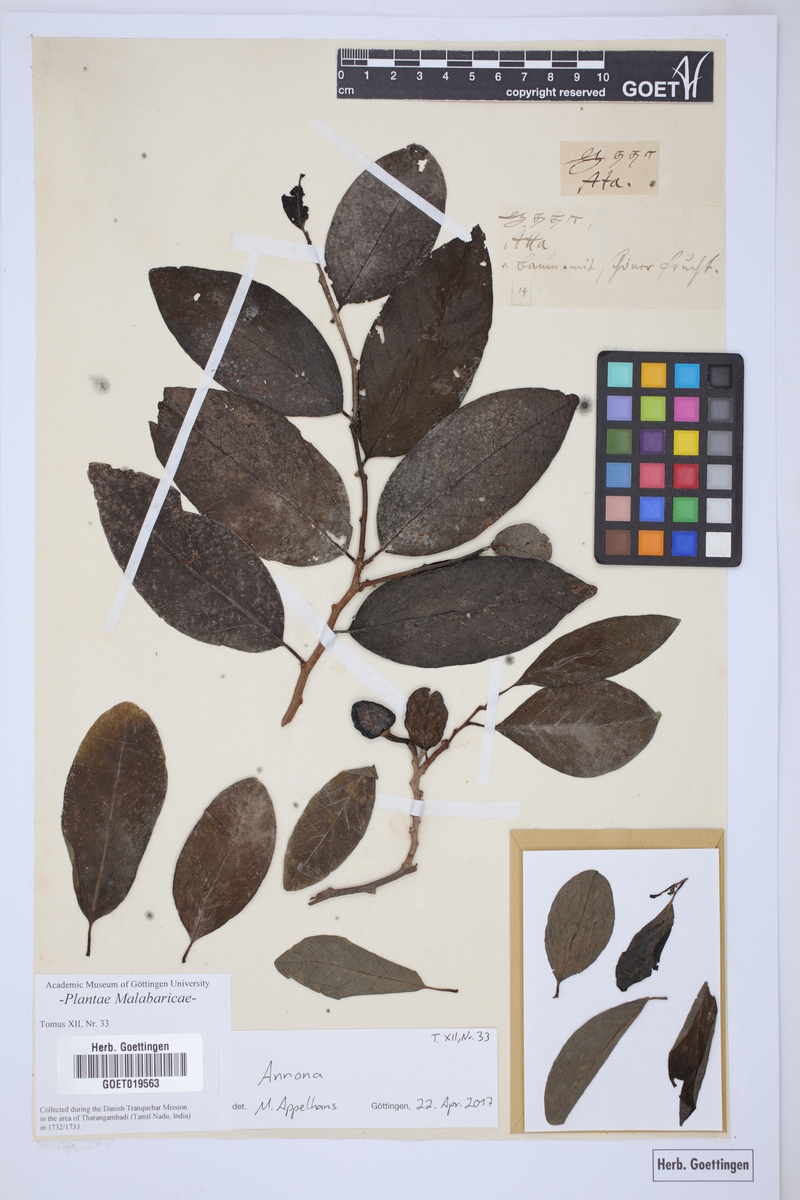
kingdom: Plantae
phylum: Tracheophyta
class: Magnoliopsida
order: Magnoliales
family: Annonaceae
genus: Annona
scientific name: Annona
